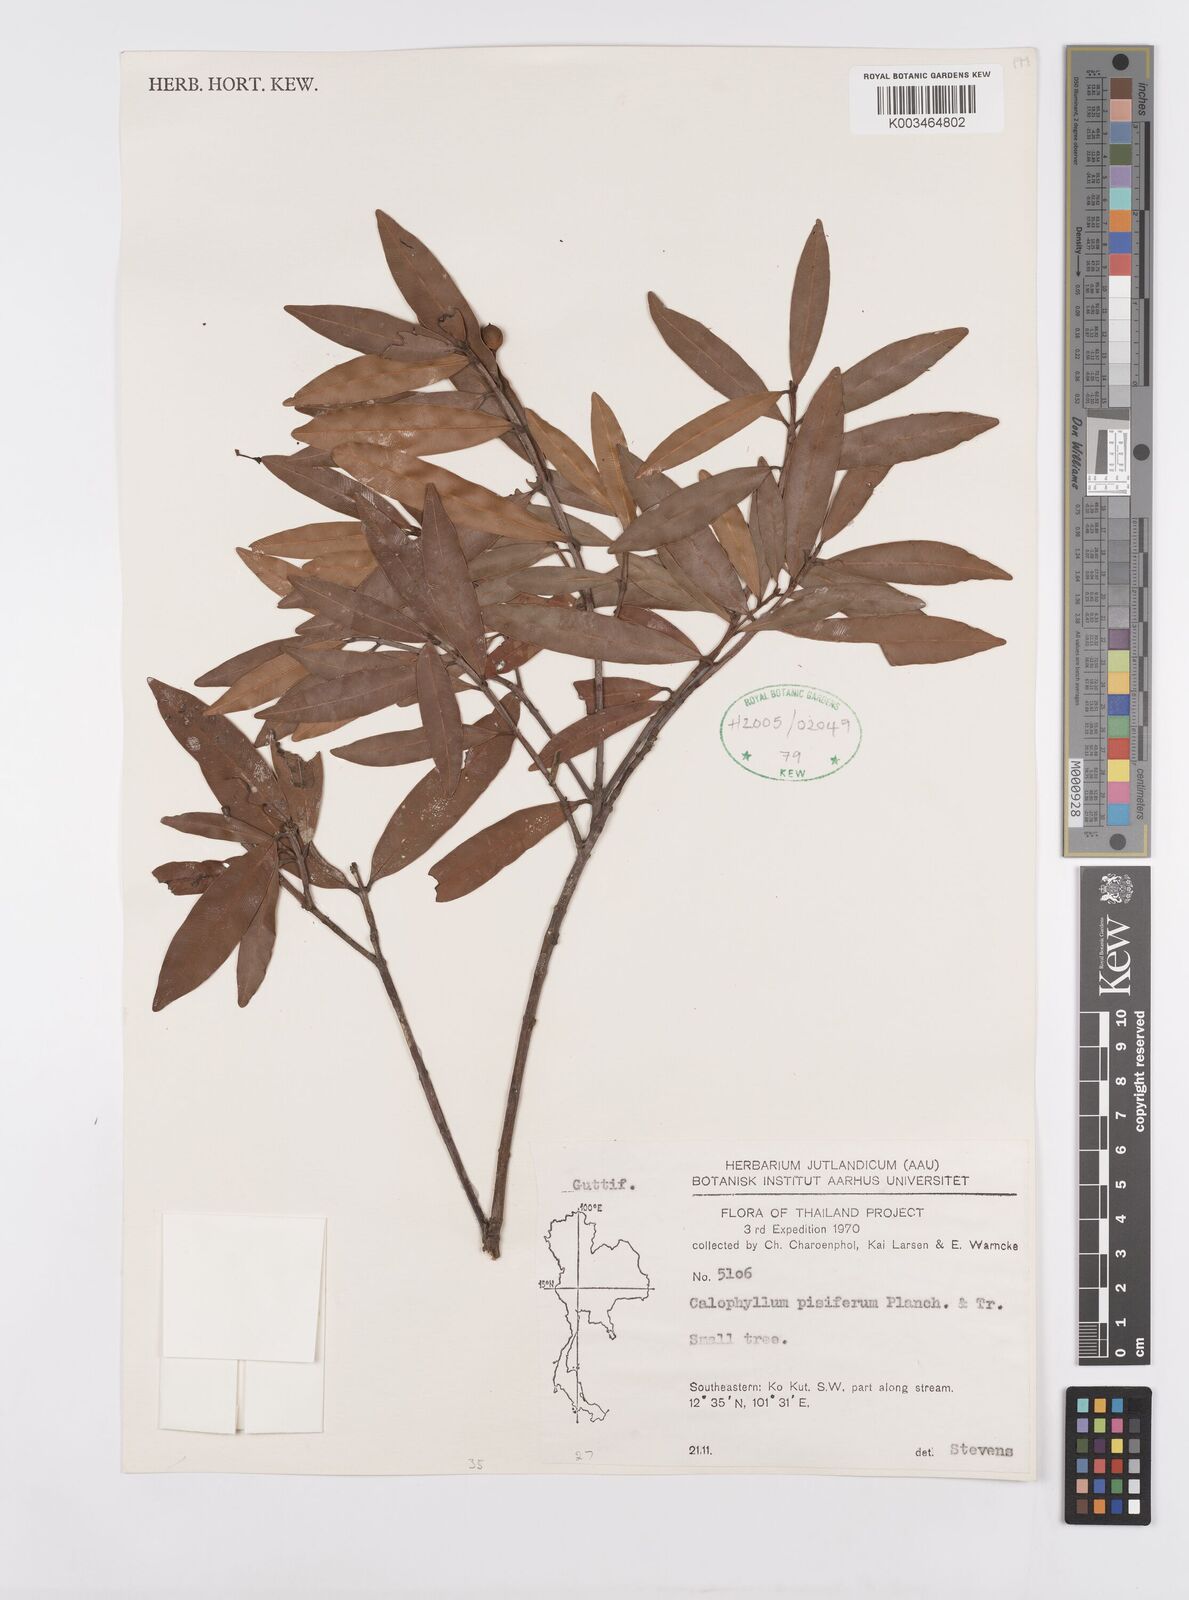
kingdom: Plantae
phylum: Tracheophyta
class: Magnoliopsida
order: Malpighiales
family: Calophyllaceae
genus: Calophyllum
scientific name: Calophyllum pisiferum
